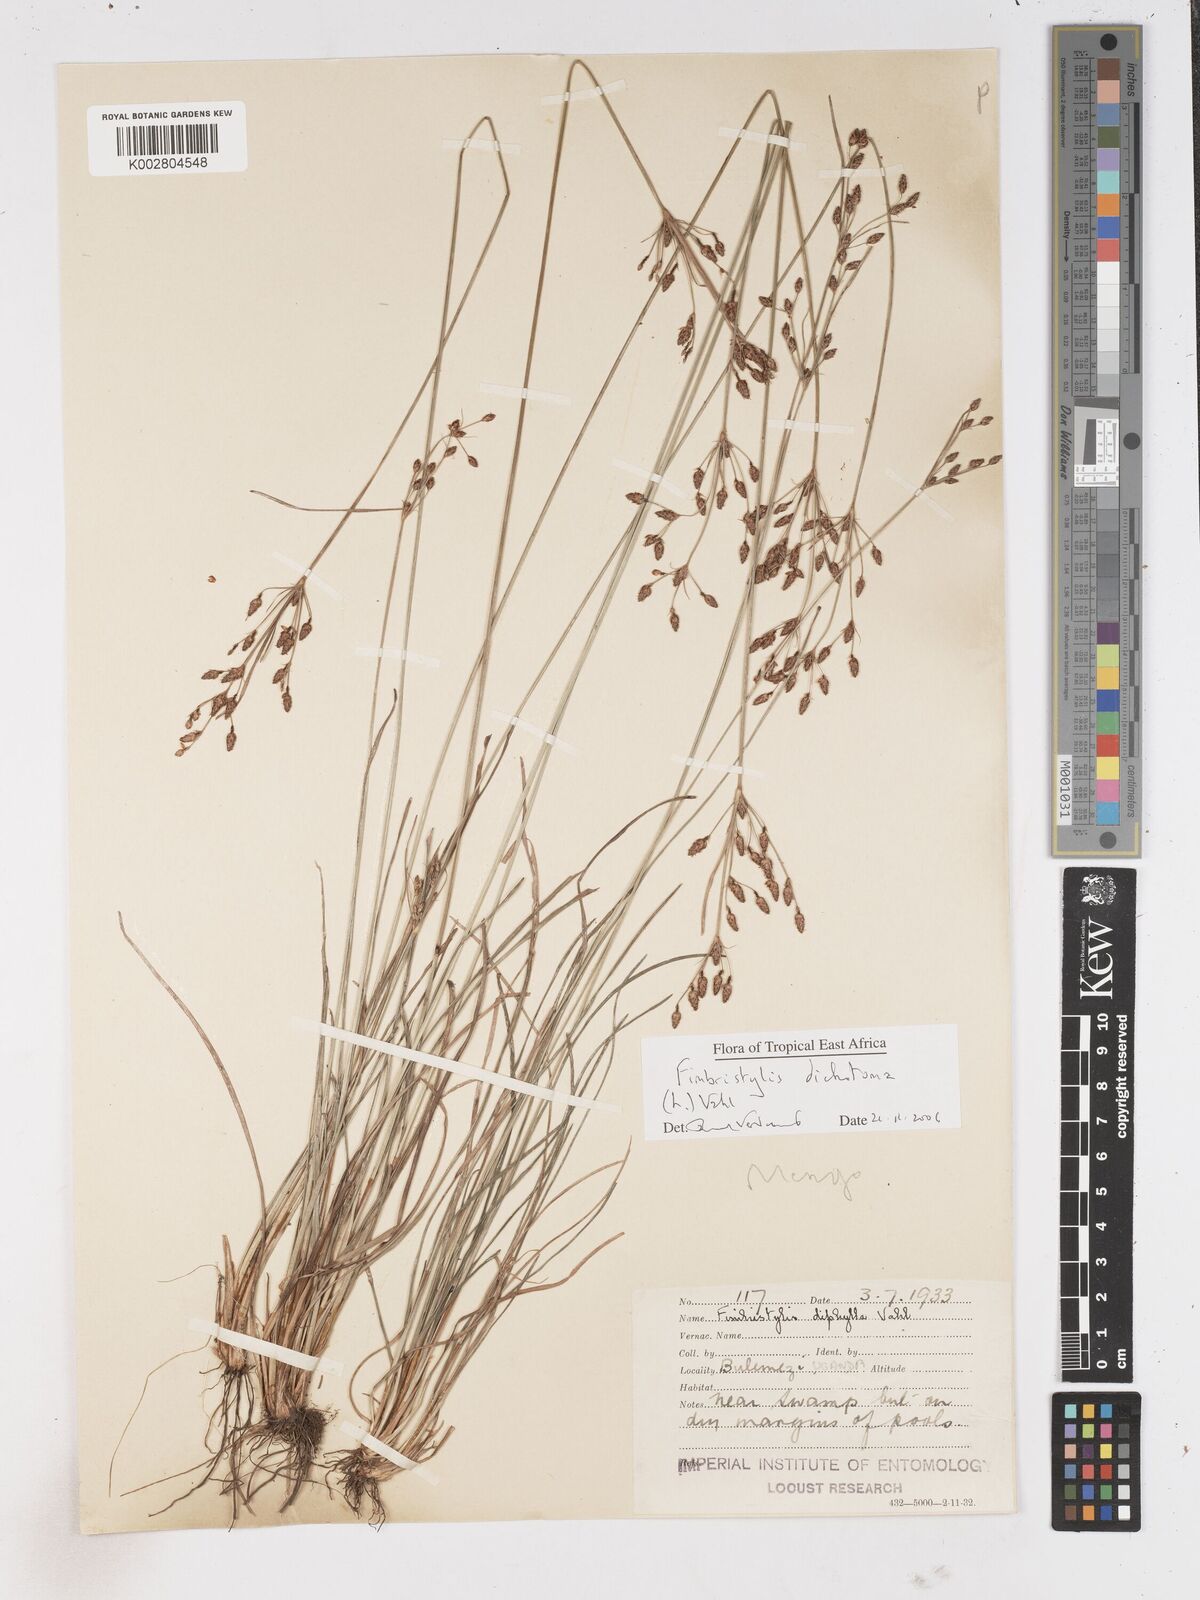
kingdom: Plantae
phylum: Tracheophyta
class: Liliopsida
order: Poales
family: Cyperaceae
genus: Fimbristylis
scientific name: Fimbristylis dichotoma
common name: Forked fimbry
